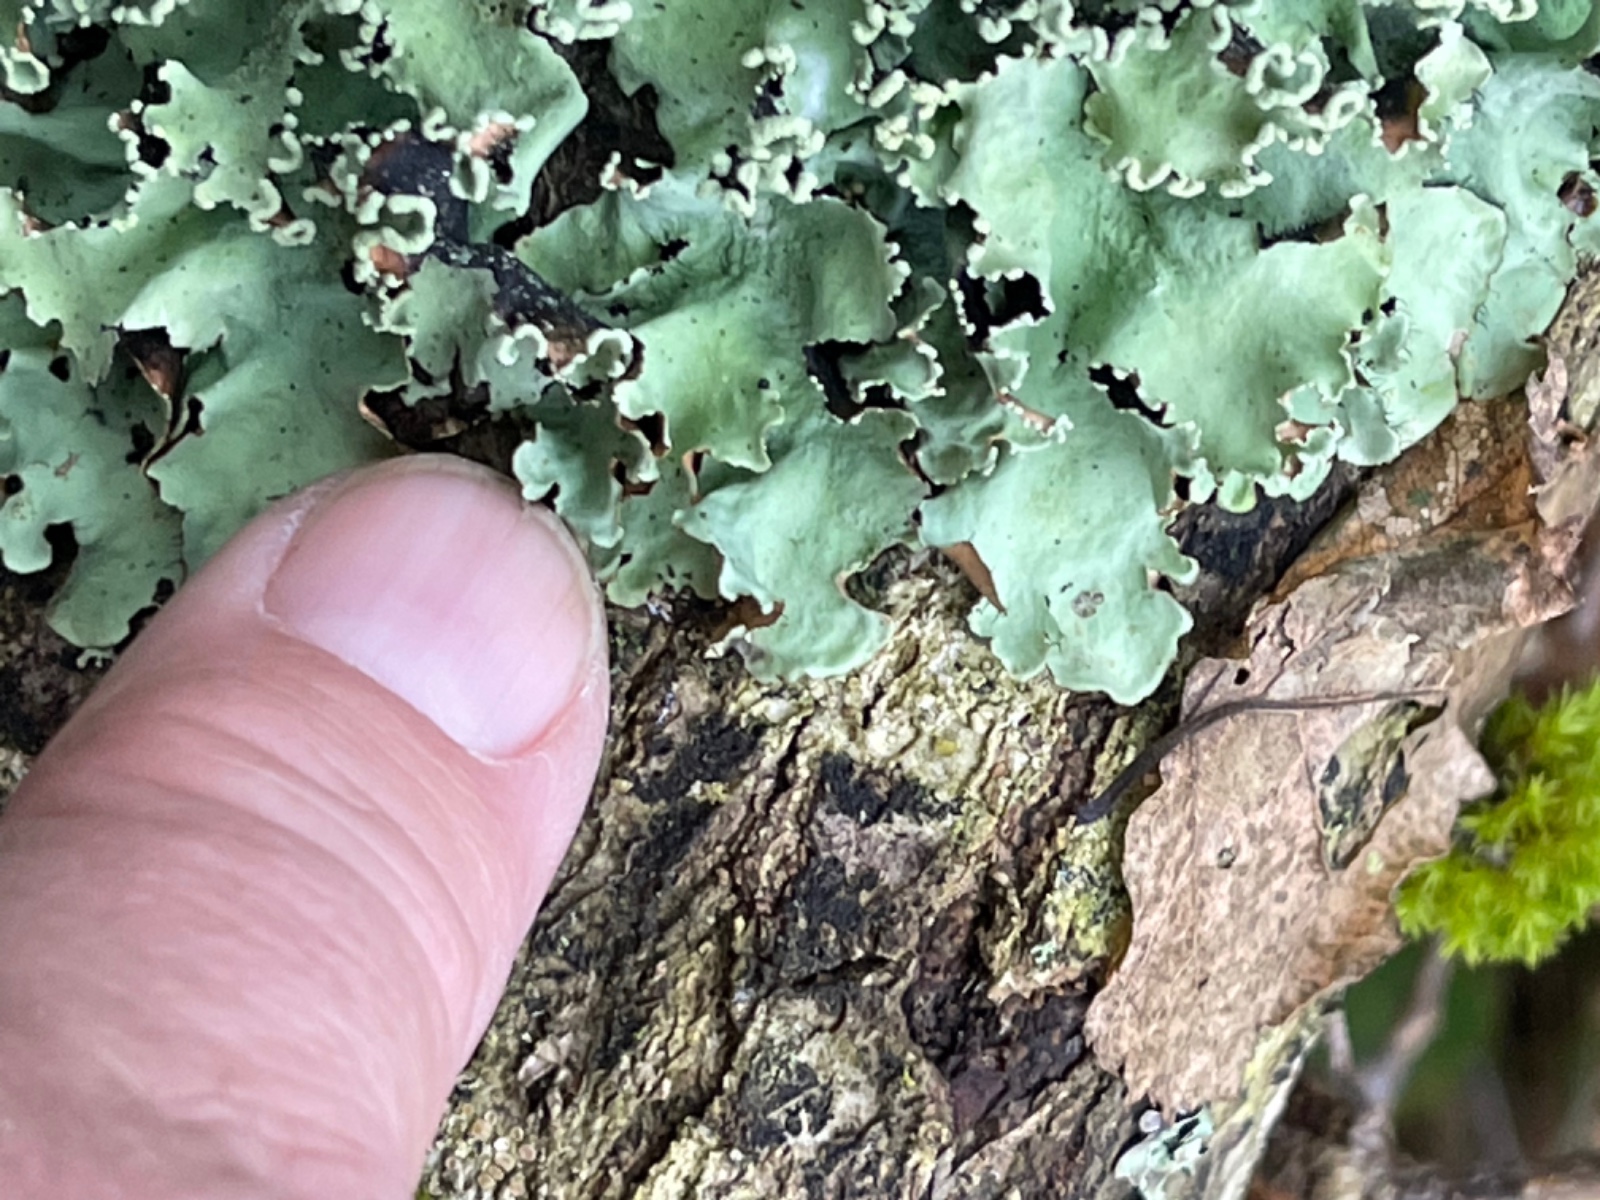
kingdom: Fungi
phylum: Ascomycota
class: Lecanoromycetes
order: Lecanorales
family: Parmeliaceae
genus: Parmotrema
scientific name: Parmotrema perlatum
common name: trådet skållav
